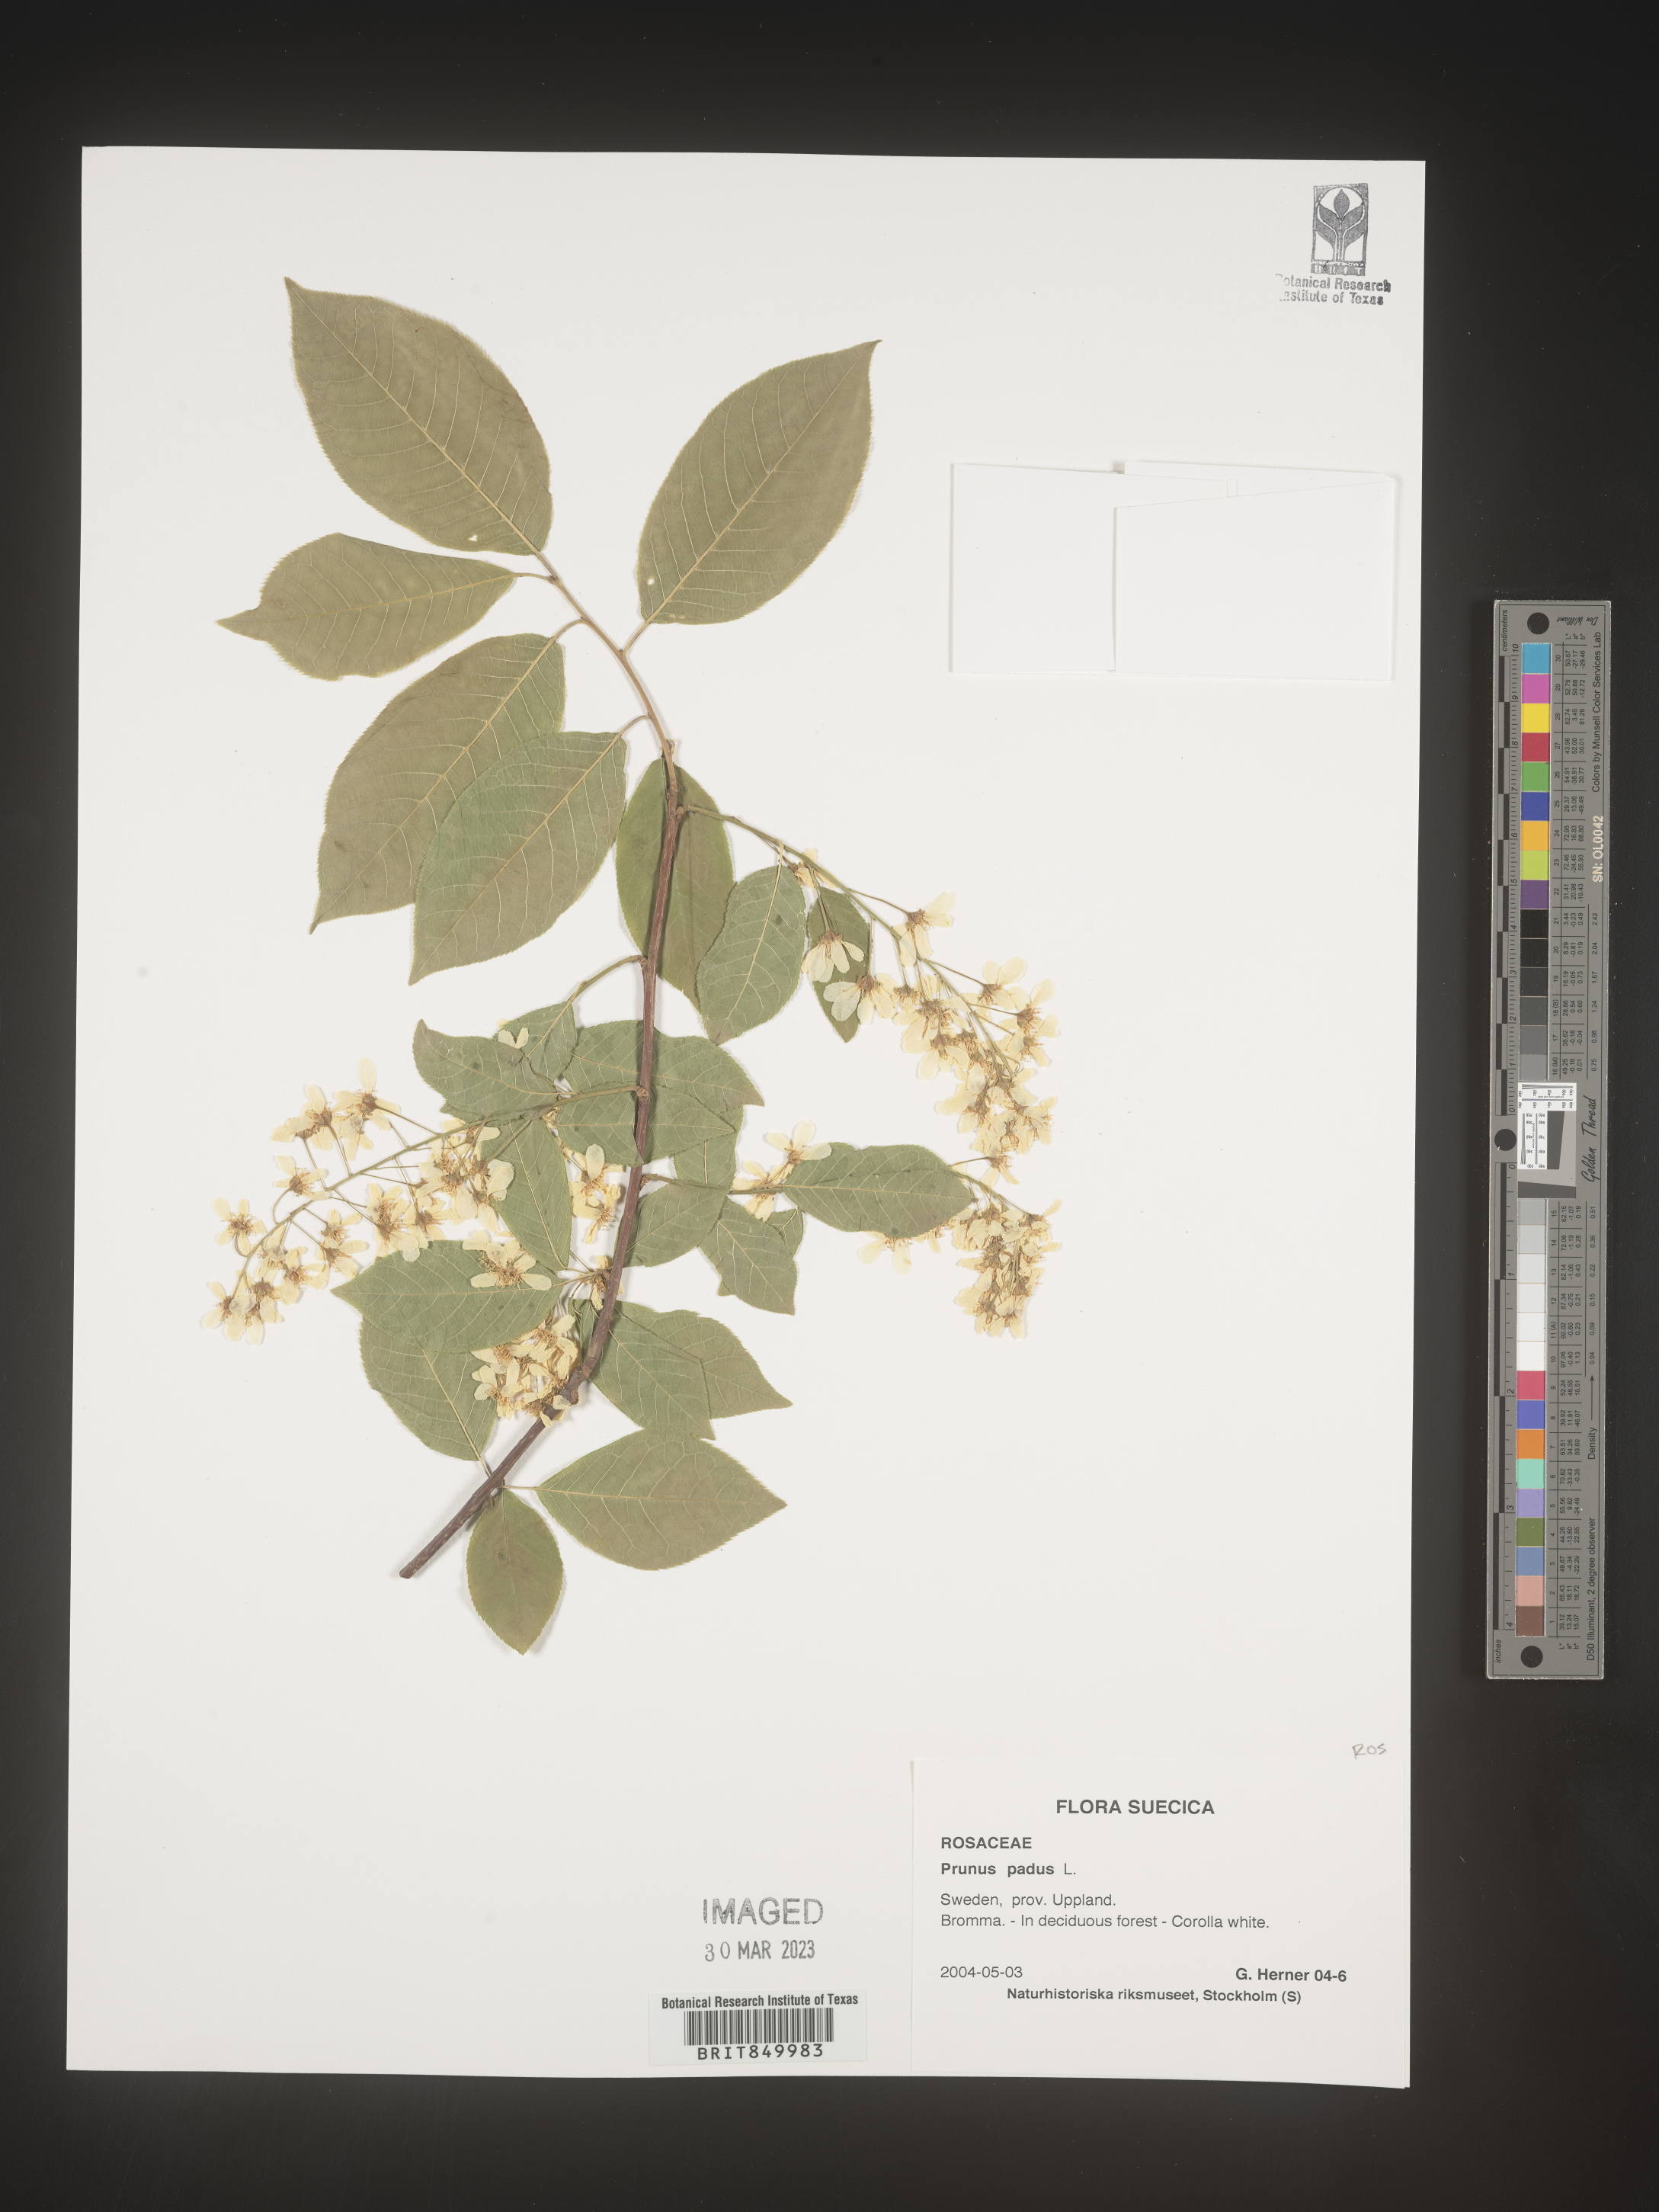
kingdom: Plantae
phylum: Tracheophyta
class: Magnoliopsida
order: Rosales
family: Rosaceae
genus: Prunus
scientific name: Prunus
